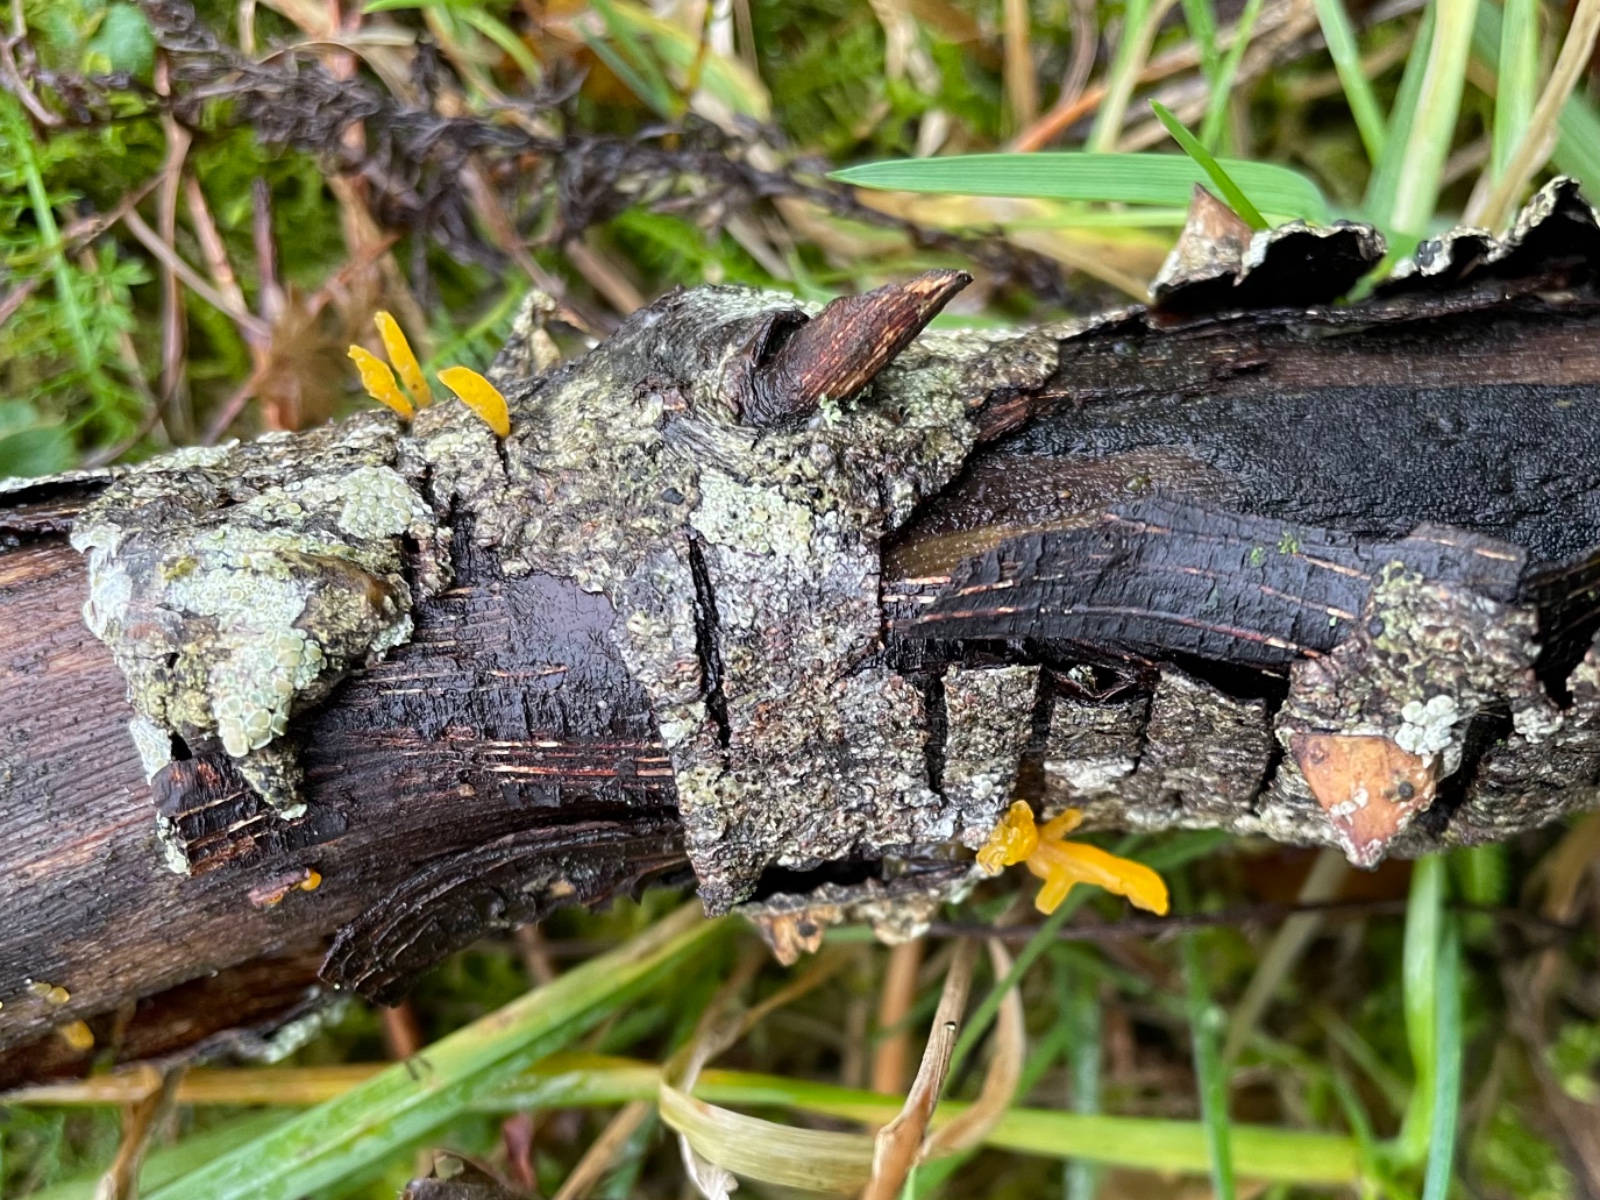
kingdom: Fungi
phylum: Basidiomycota
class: Dacrymycetes
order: Dacrymycetales
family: Dacrymycetaceae
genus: Calocera
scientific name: Calocera cornea
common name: liden guldgaffel
